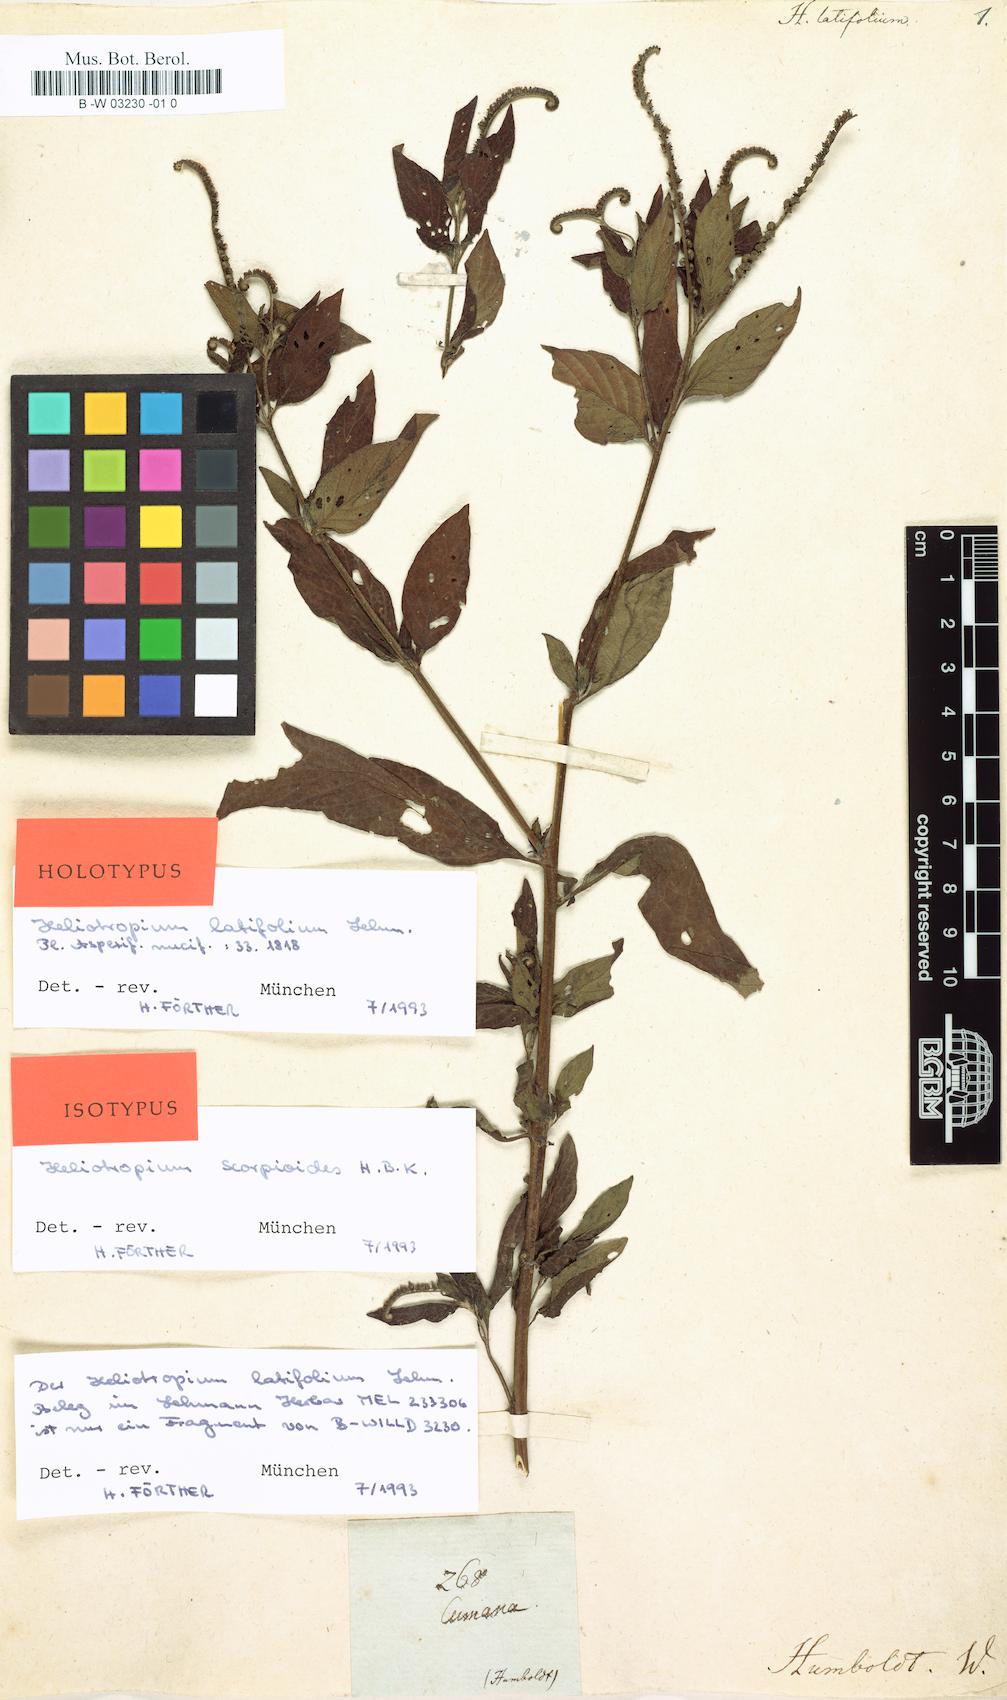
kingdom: Plantae
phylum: Tracheophyta
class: Magnoliopsida
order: Boraginales
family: Heliotropiaceae
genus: Heliotropium
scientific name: Heliotropium angiospermum
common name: Eye bright
